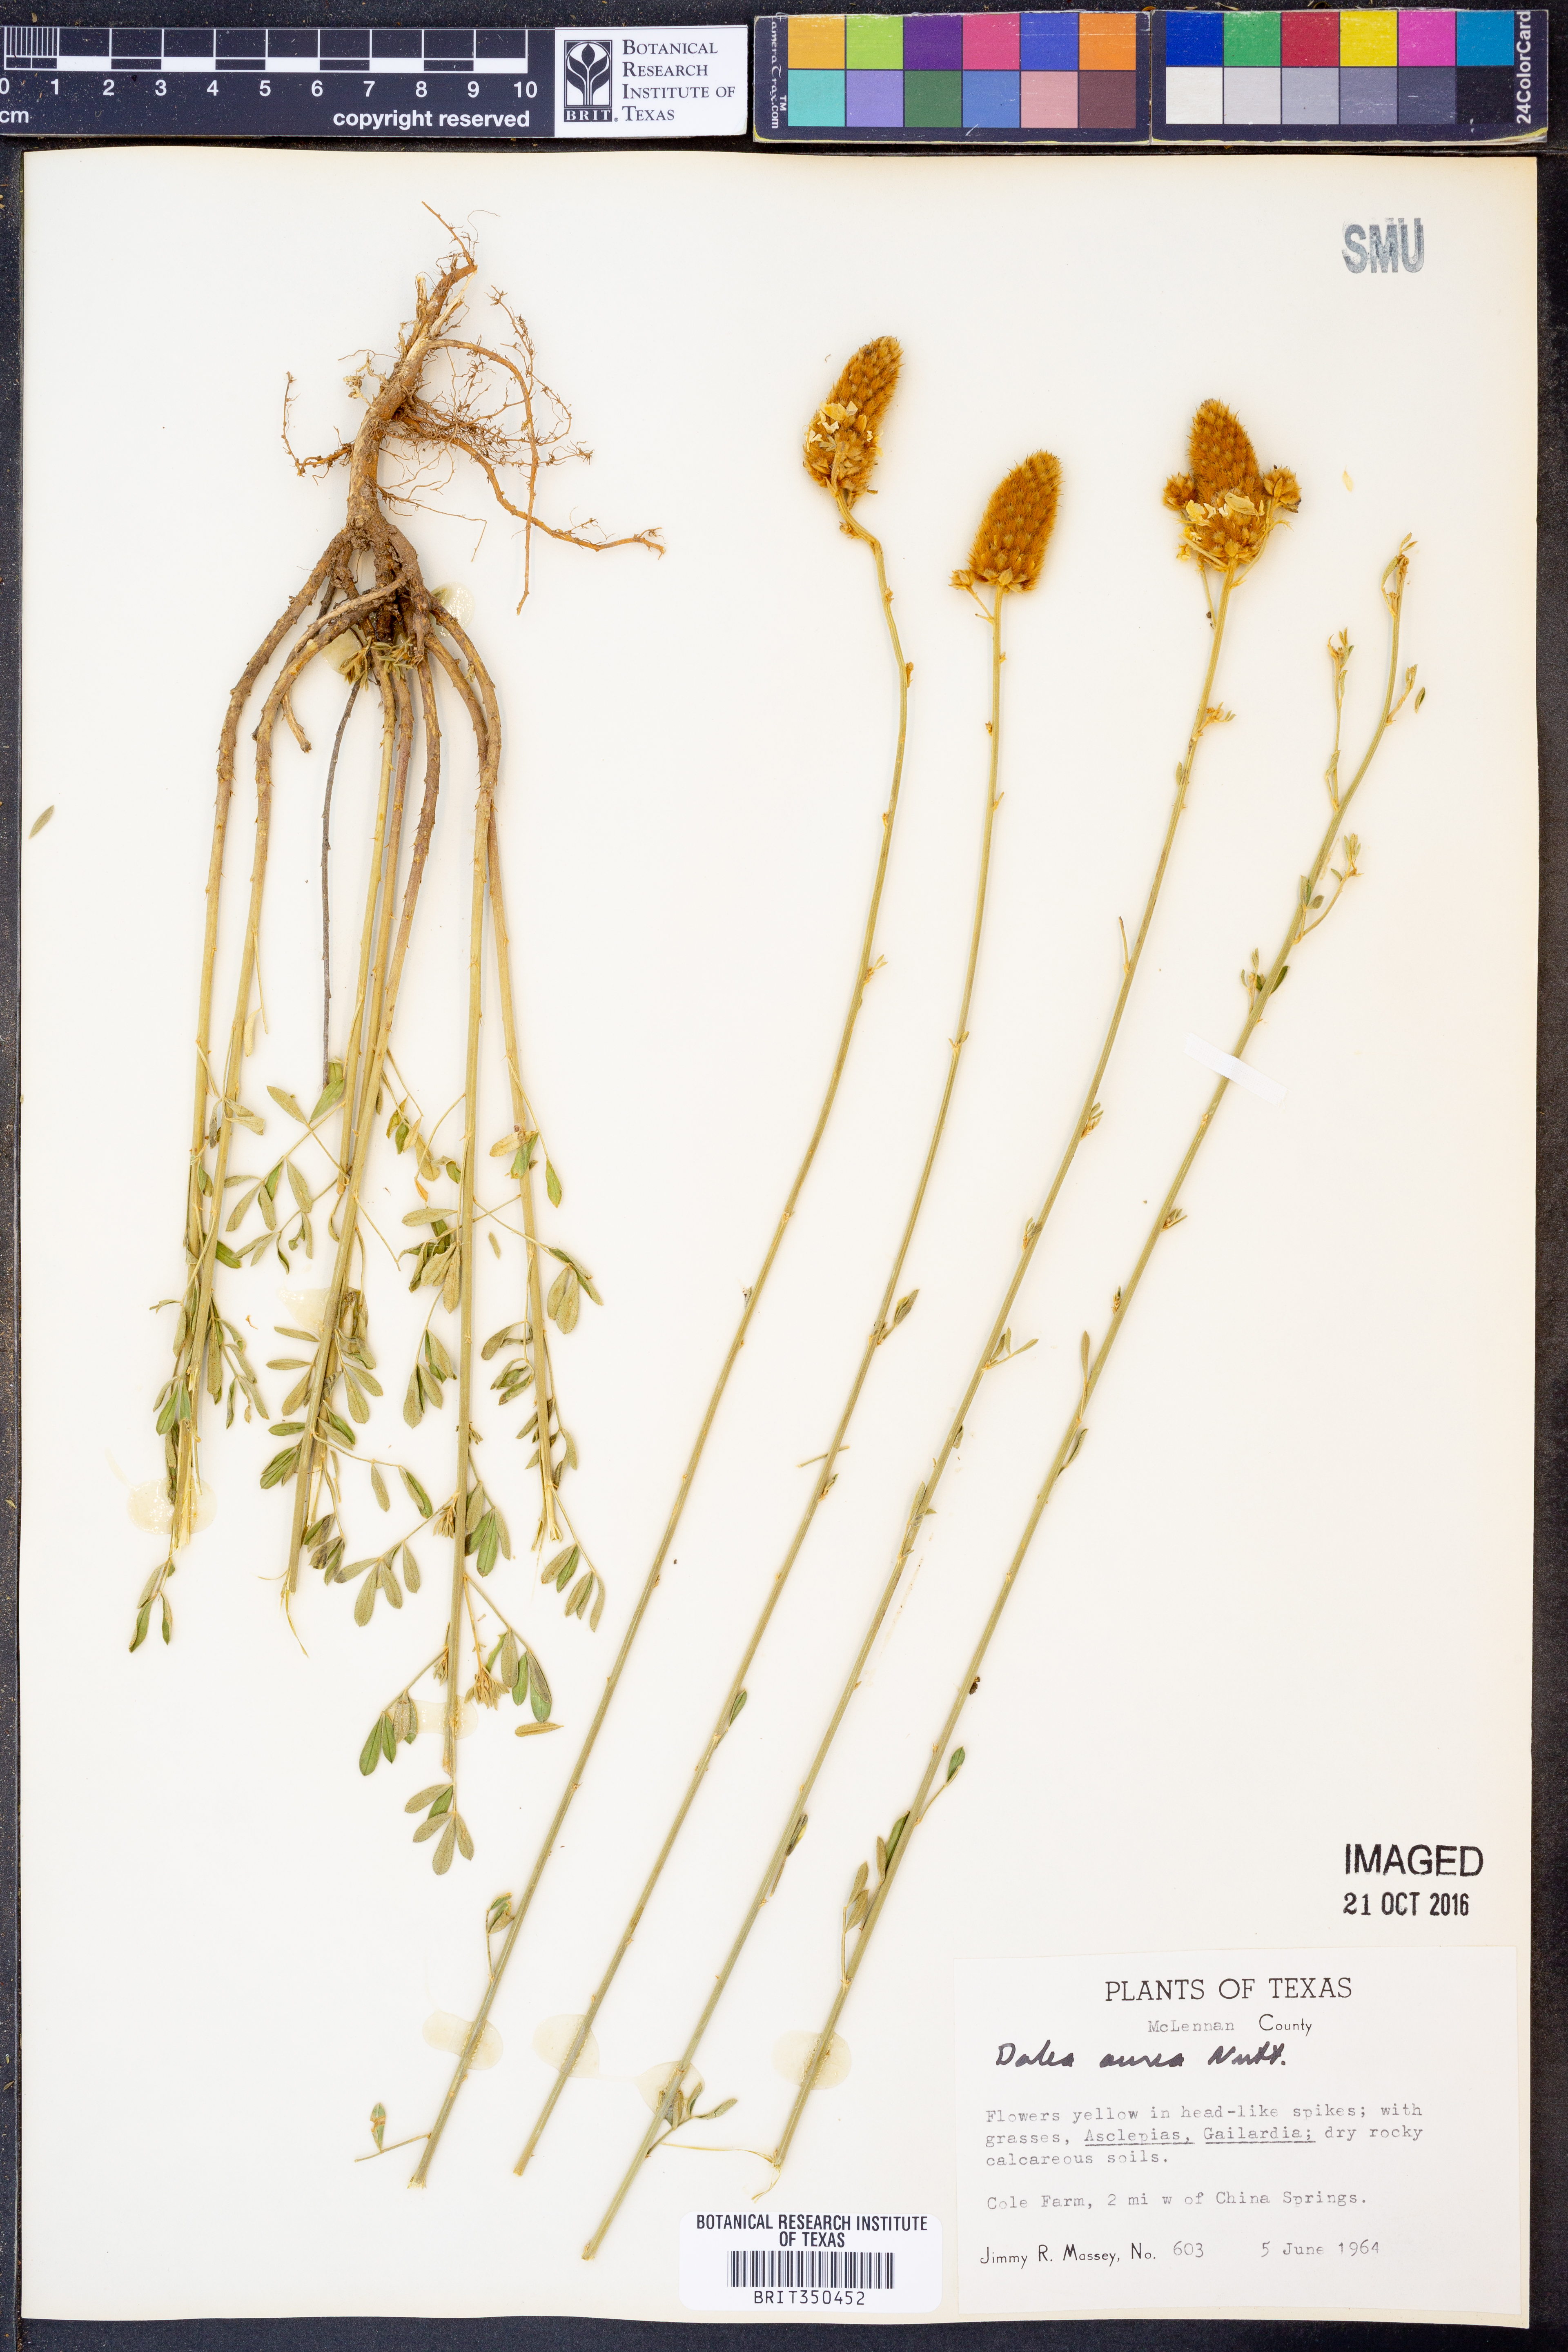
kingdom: Plantae
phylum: Tracheophyta
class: Magnoliopsida
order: Fabales
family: Fabaceae
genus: Dalea
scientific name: Dalea aurea
